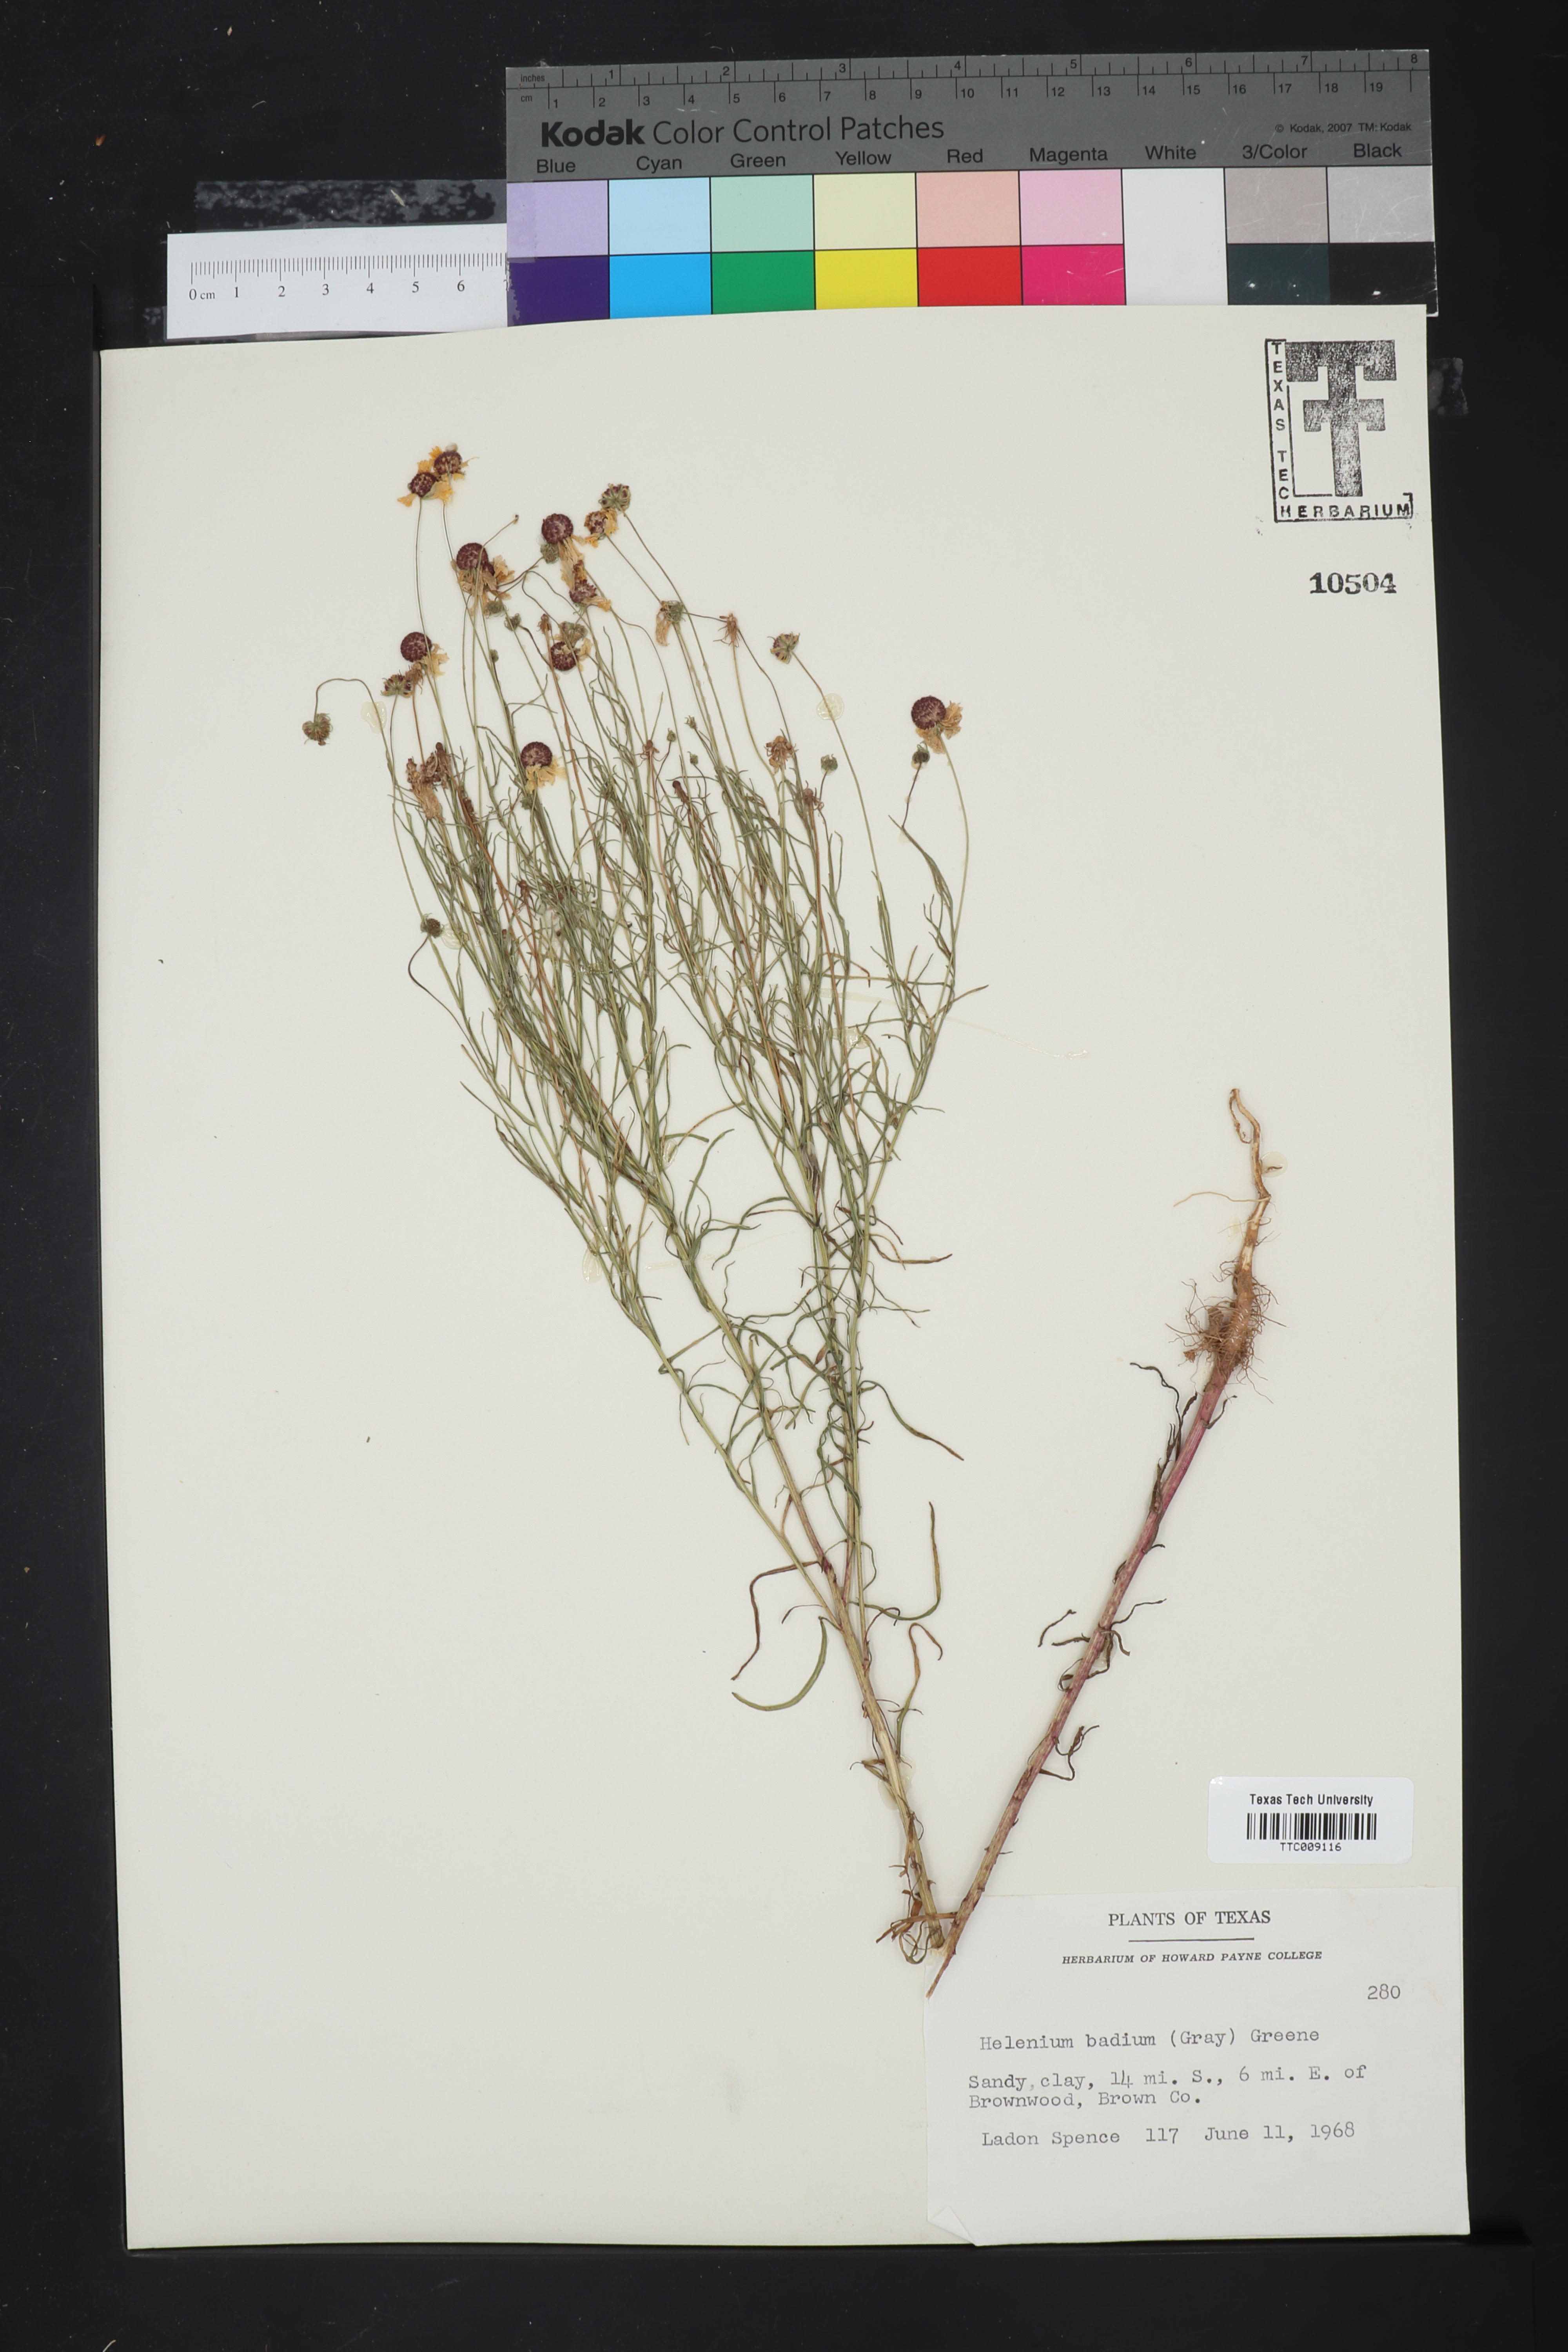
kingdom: Plantae
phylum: Tracheophyta
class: Magnoliopsida
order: Asterales
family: Asteraceae
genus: Helenium
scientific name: Helenium amarum
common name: Bitter sneezeweed
